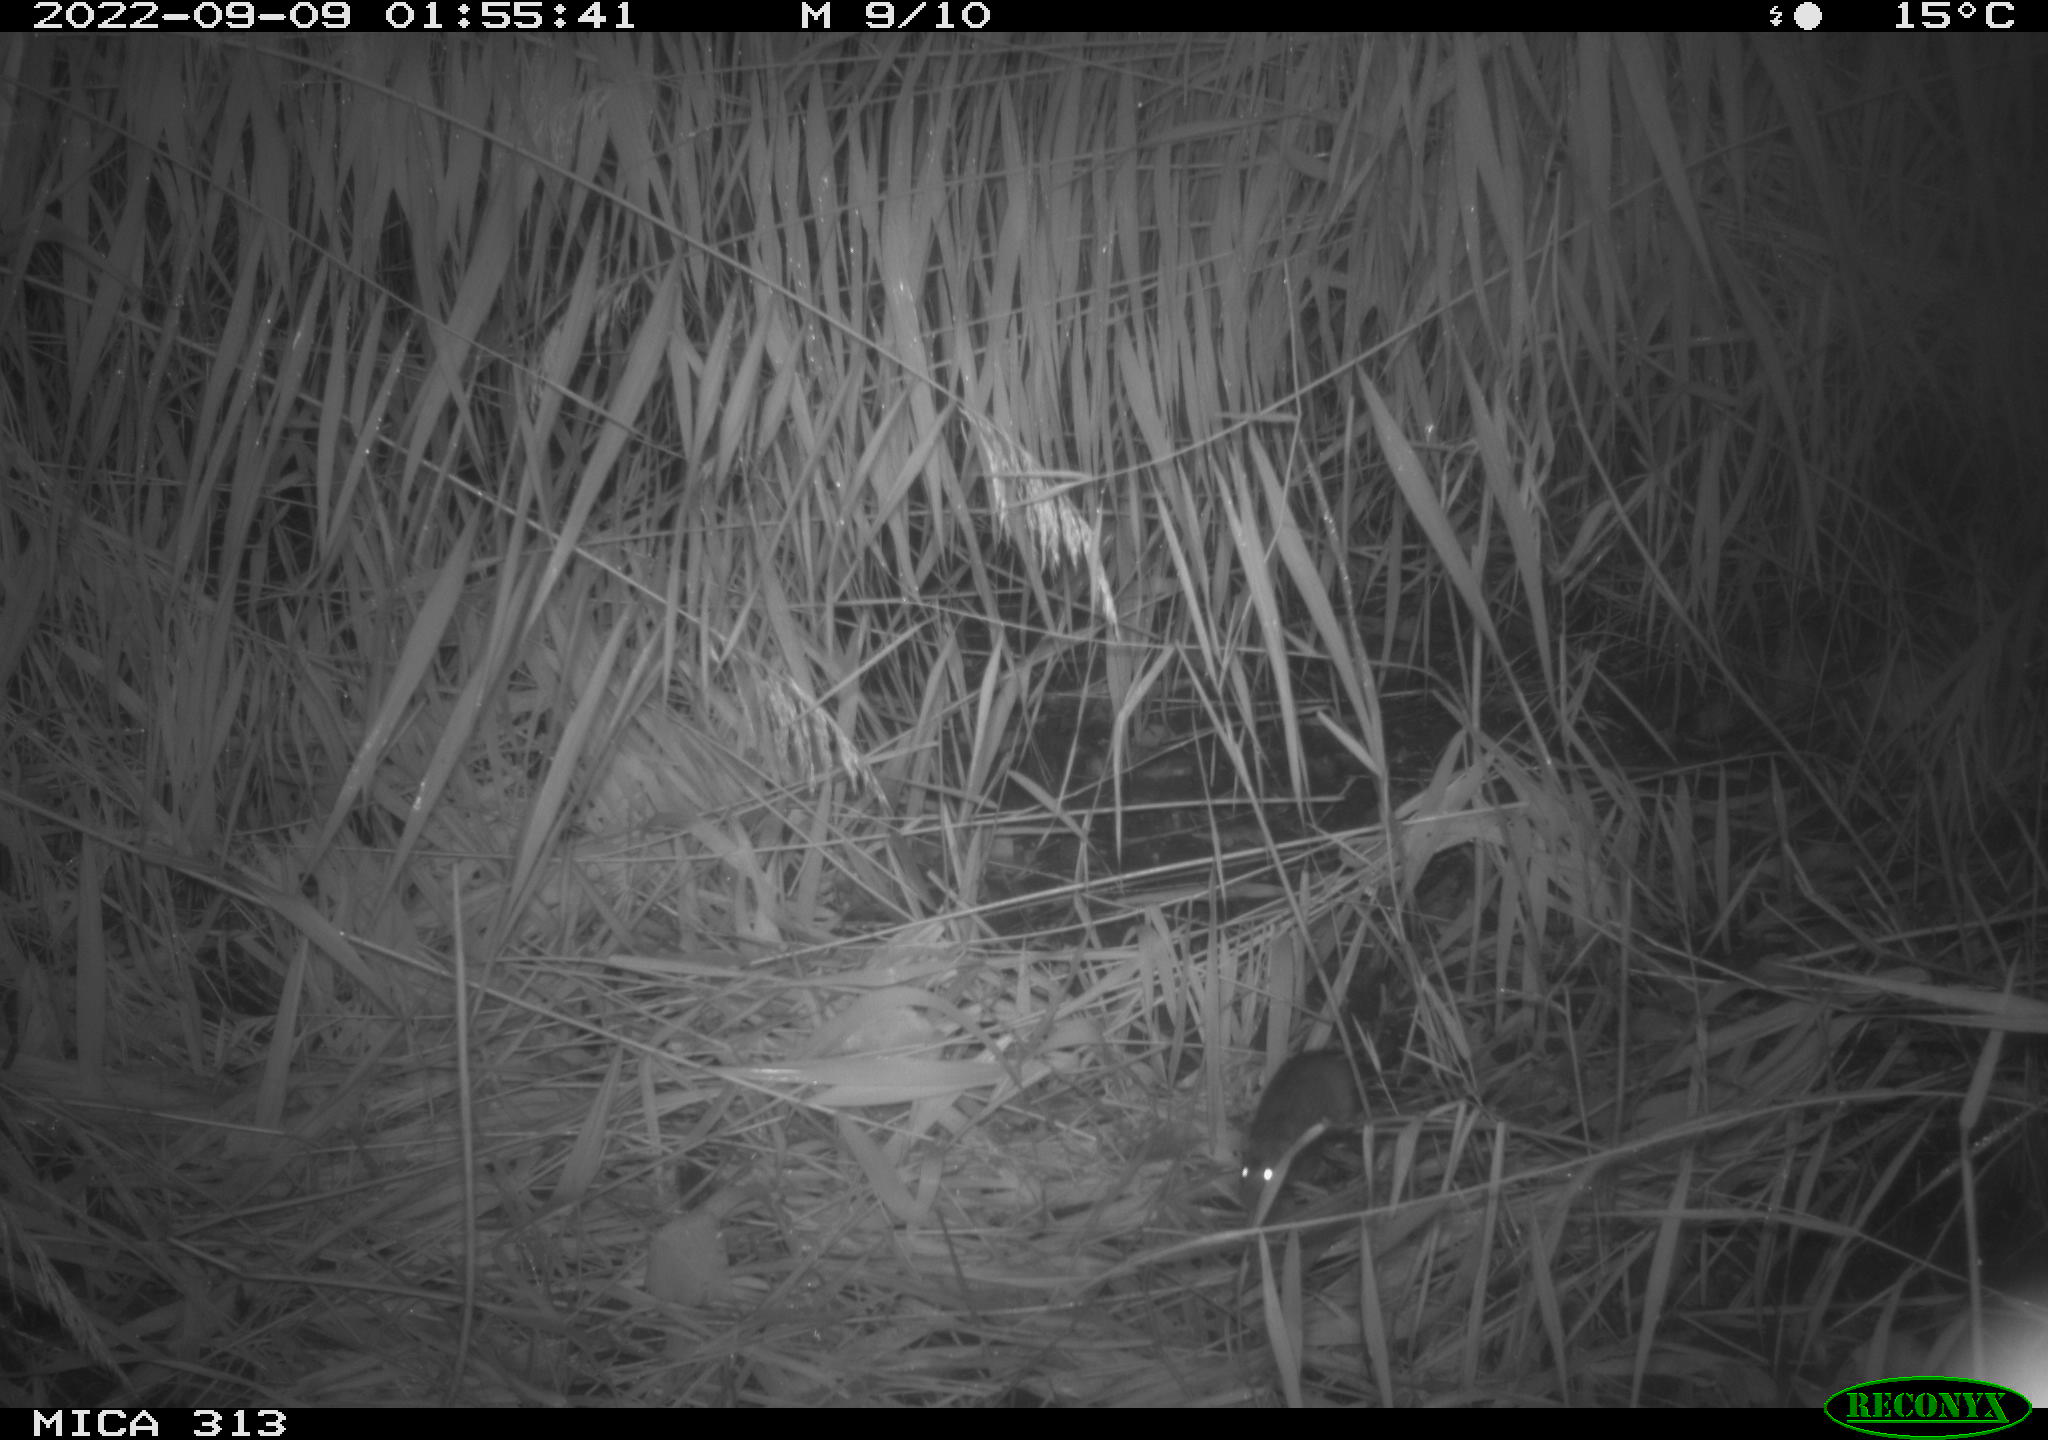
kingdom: Animalia
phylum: Chordata
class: Mammalia
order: Rodentia
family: Muridae
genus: Apodemus
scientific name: Apodemus sylvaticus
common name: Wood mouse
